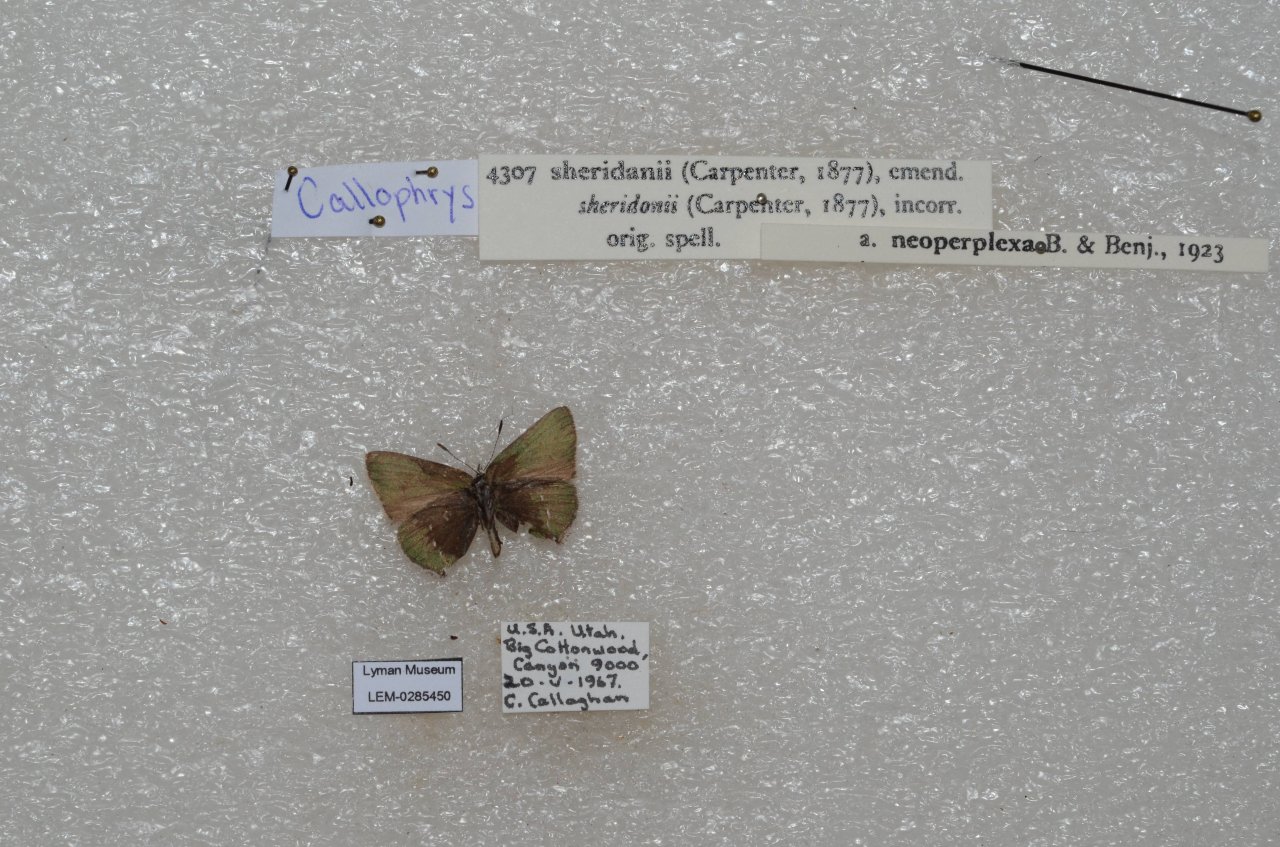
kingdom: Animalia
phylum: Arthropoda
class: Insecta
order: Lepidoptera
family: Lycaenidae
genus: Thecla
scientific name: Thecla sheridanii
